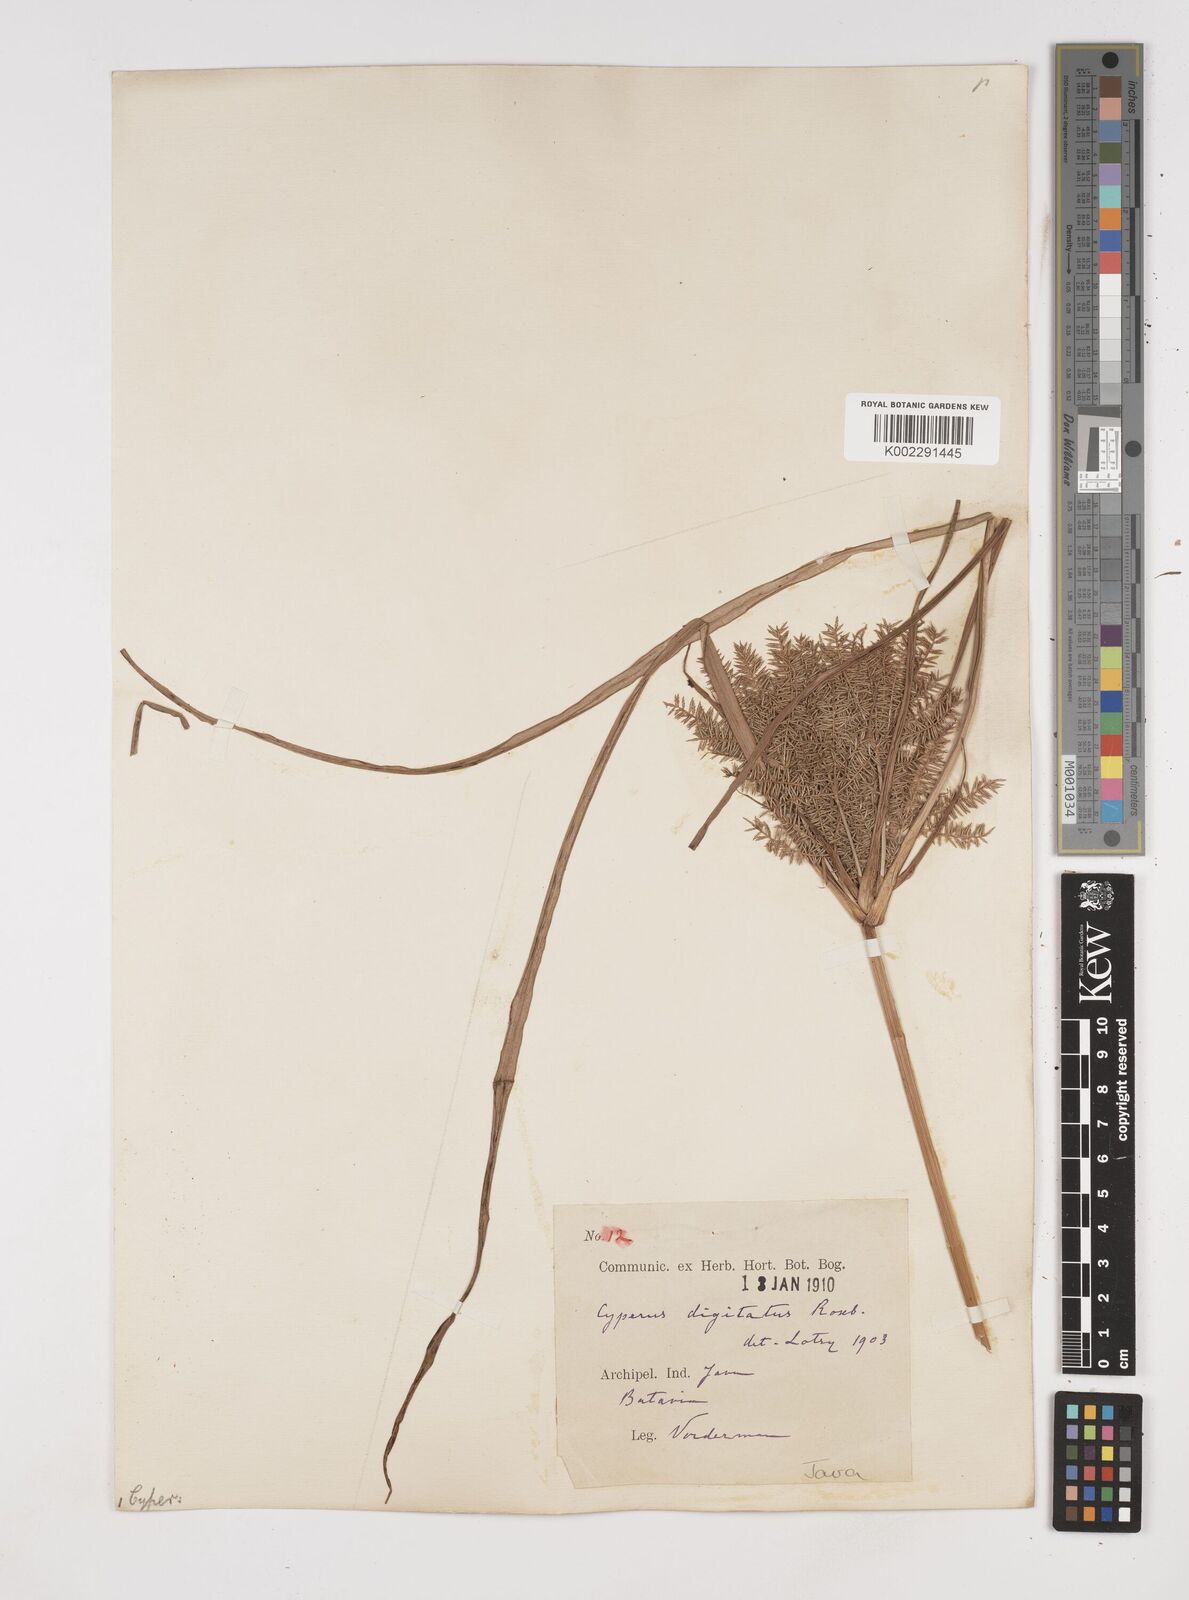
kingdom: Plantae
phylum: Tracheophyta
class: Liliopsida
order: Poales
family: Cyperaceae
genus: Cyperus
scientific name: Cyperus digitatus
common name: Finger flatsedge
